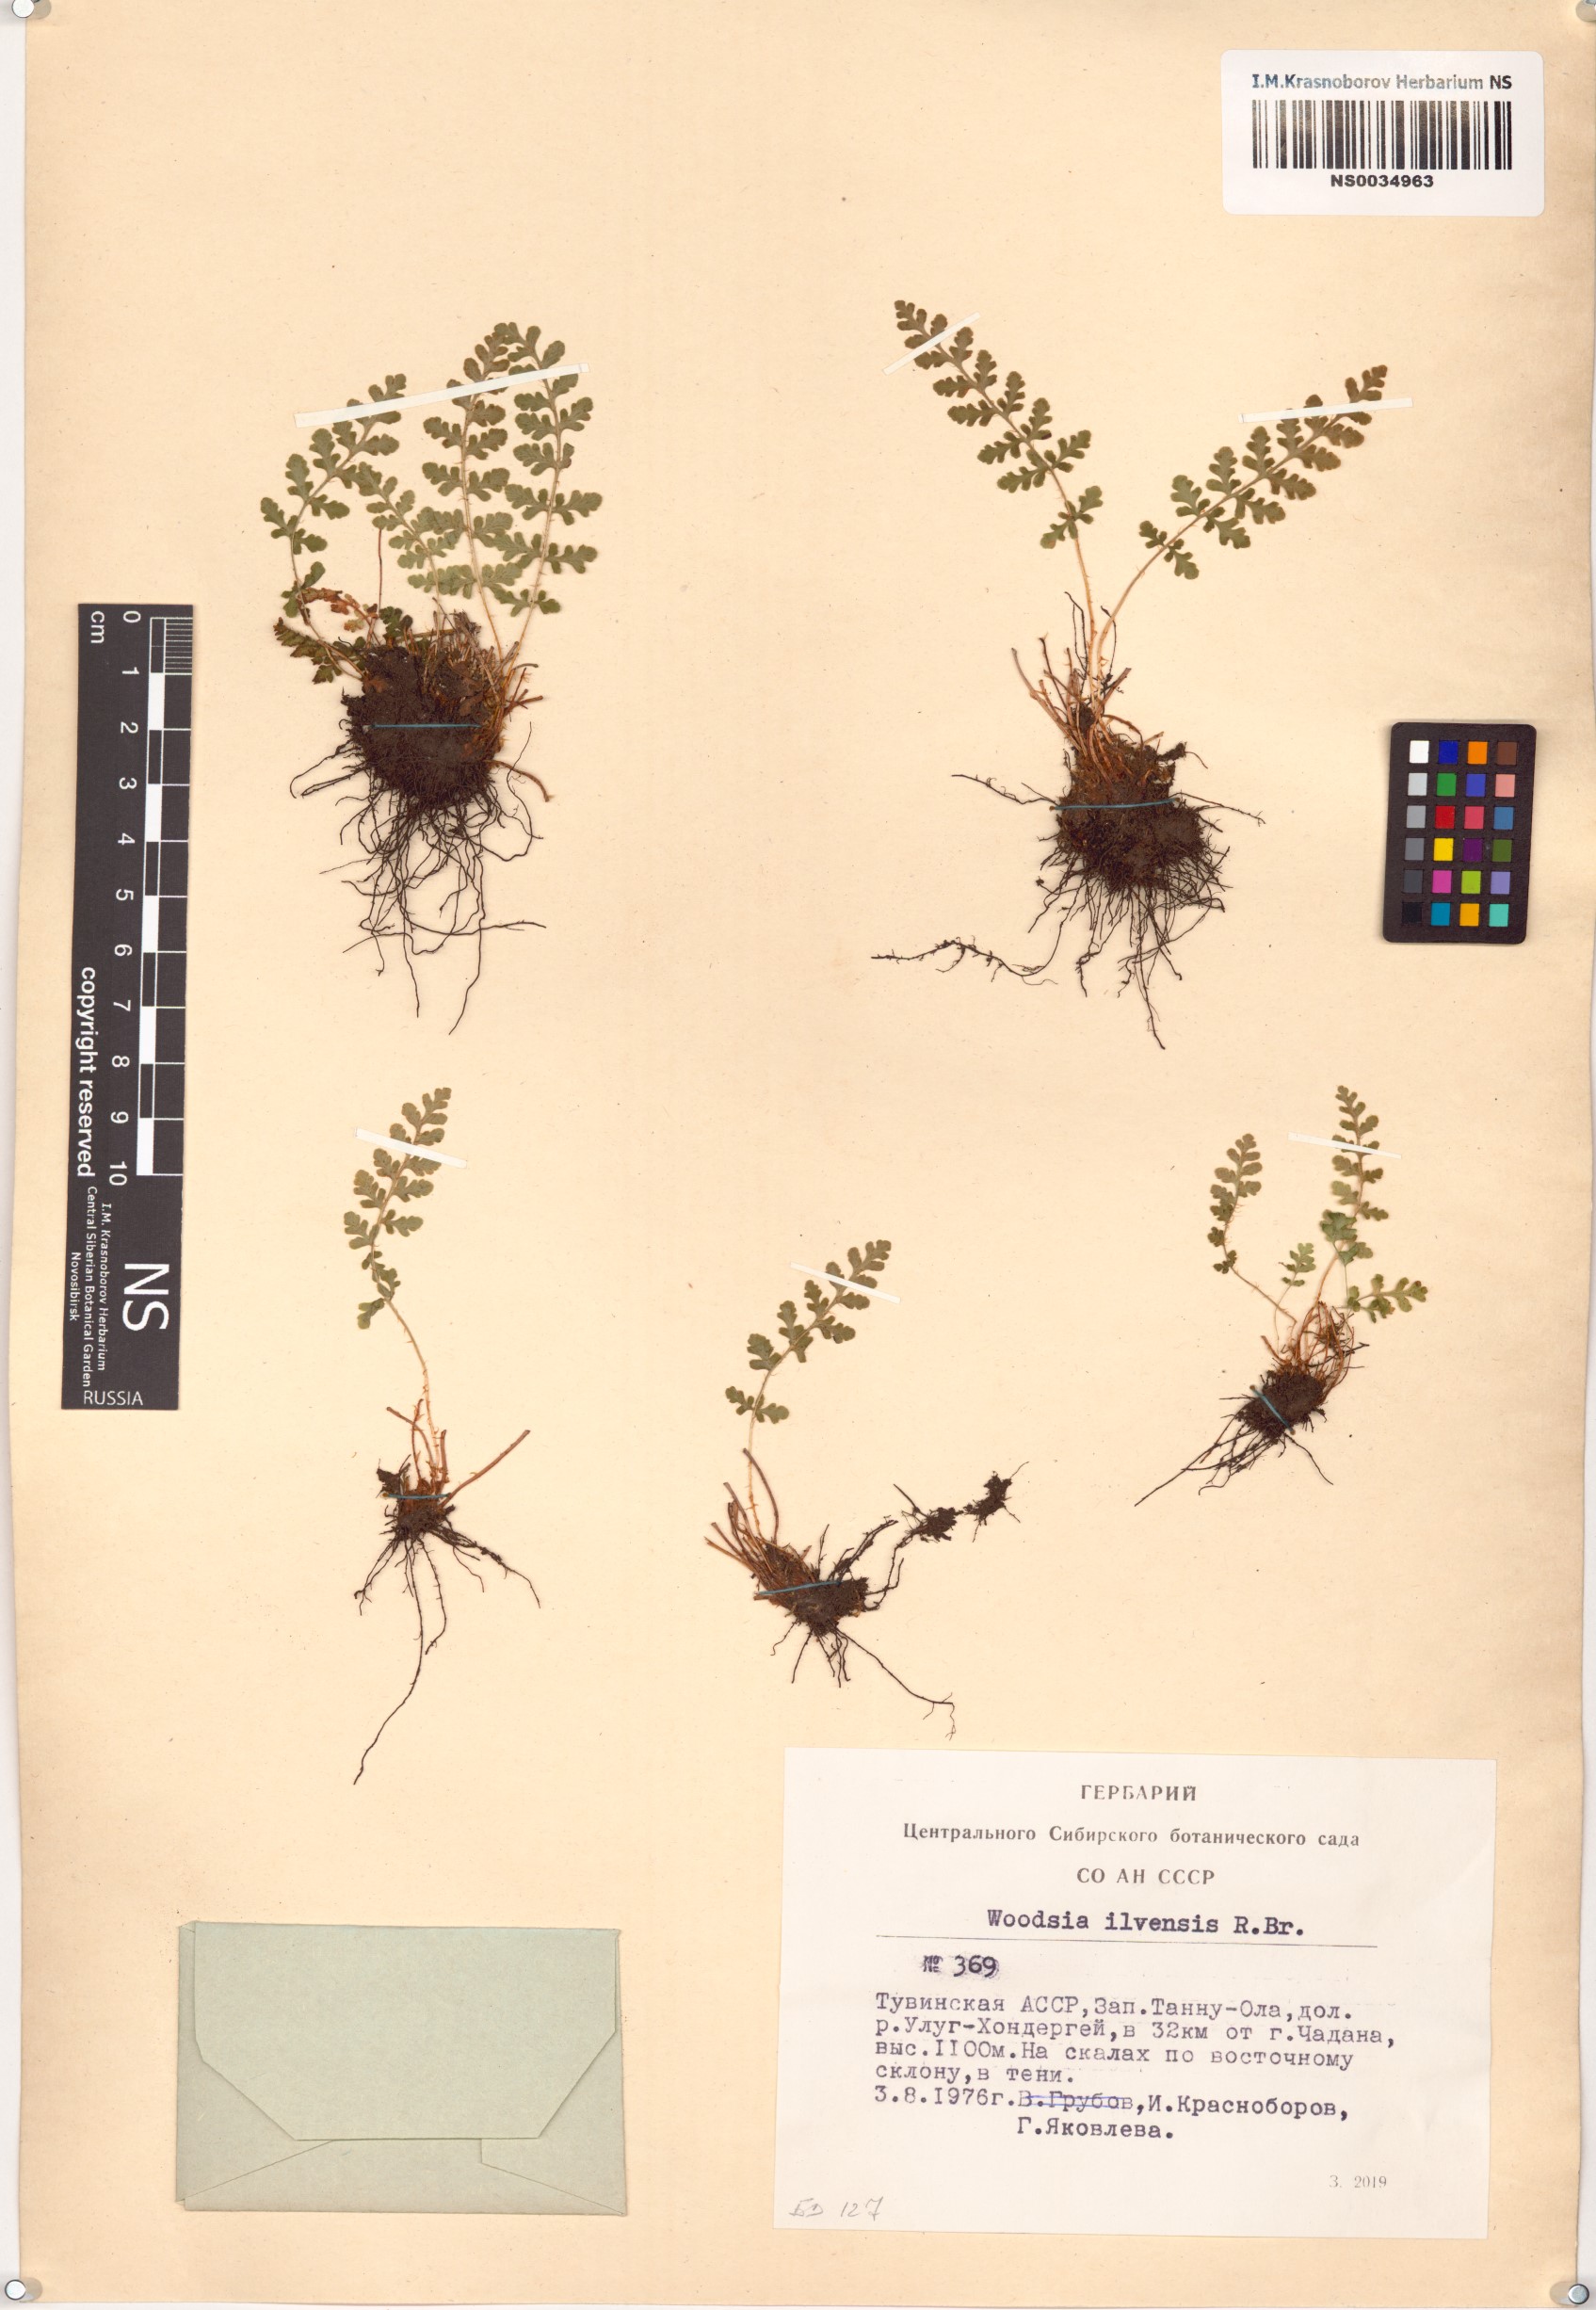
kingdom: Plantae
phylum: Tracheophyta
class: Polypodiopsida
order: Polypodiales
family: Woodsiaceae
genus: Woodsia
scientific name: Woodsia ilvensis
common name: Fragrant woodsia
